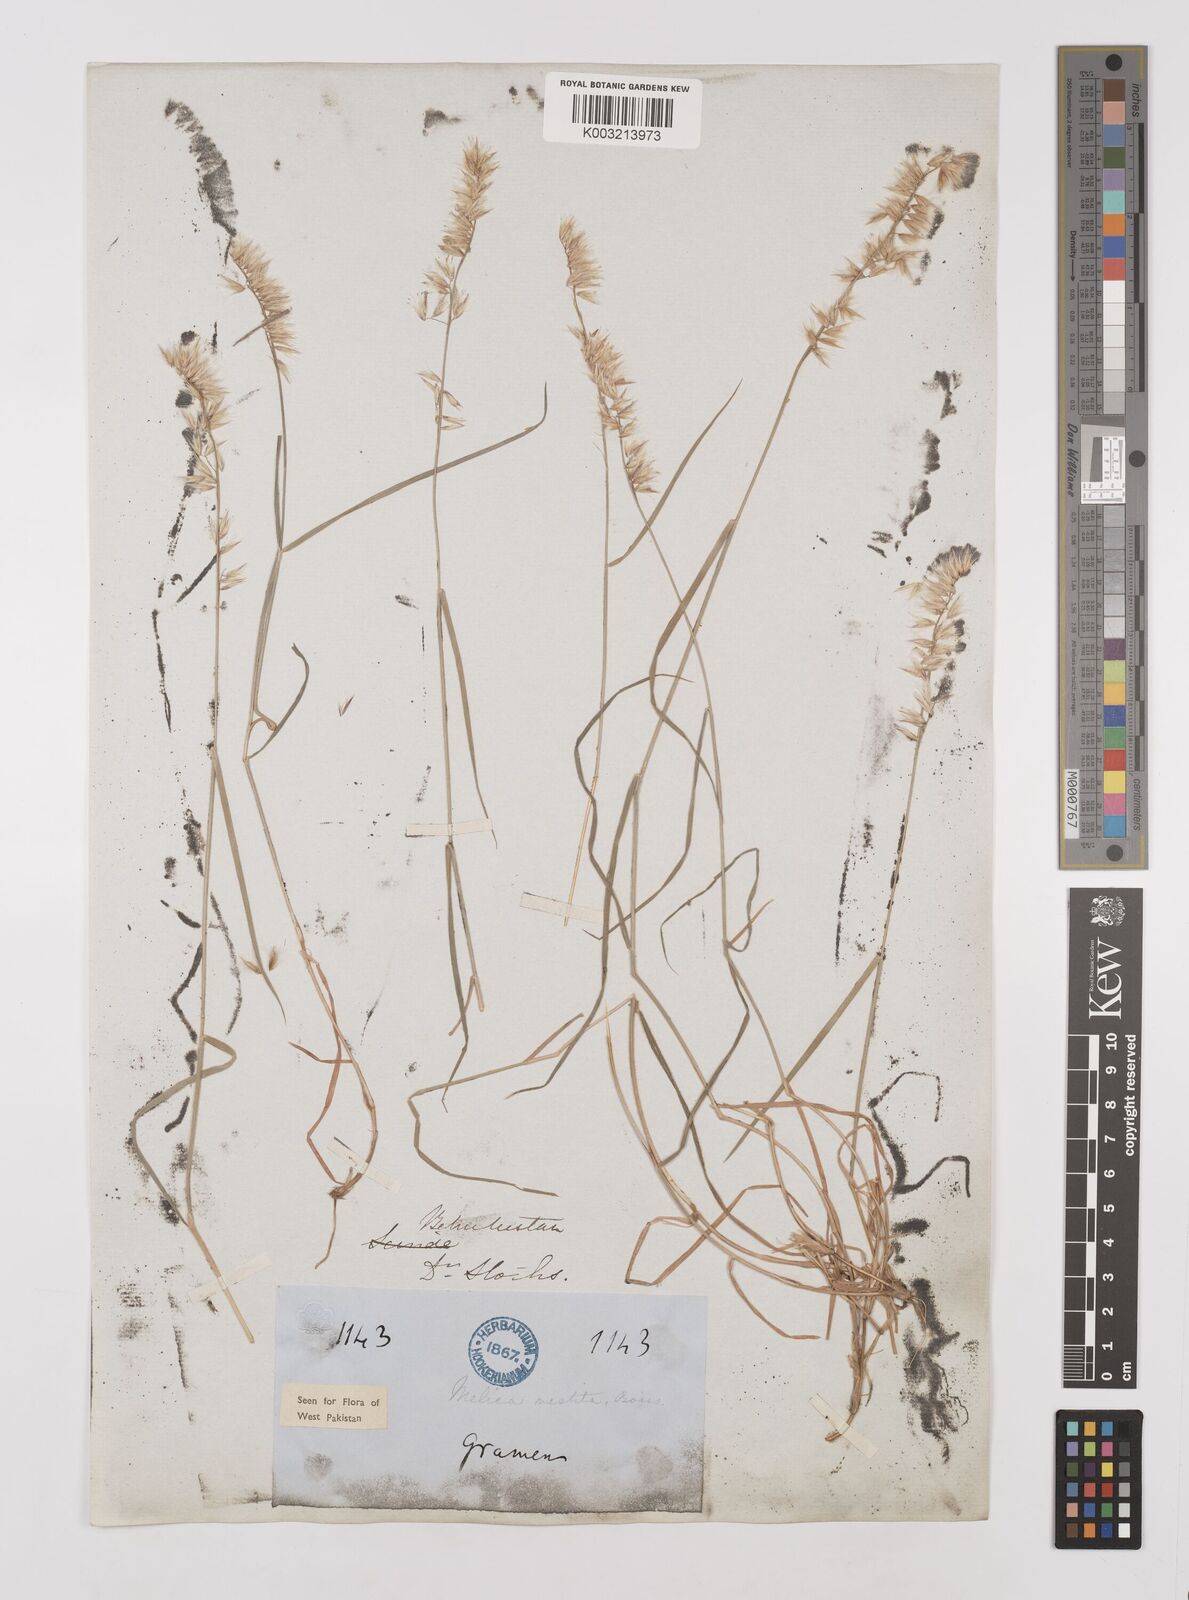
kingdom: Plantae
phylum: Tracheophyta
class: Liliopsida
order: Poales
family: Poaceae
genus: Melica
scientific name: Melica persica
